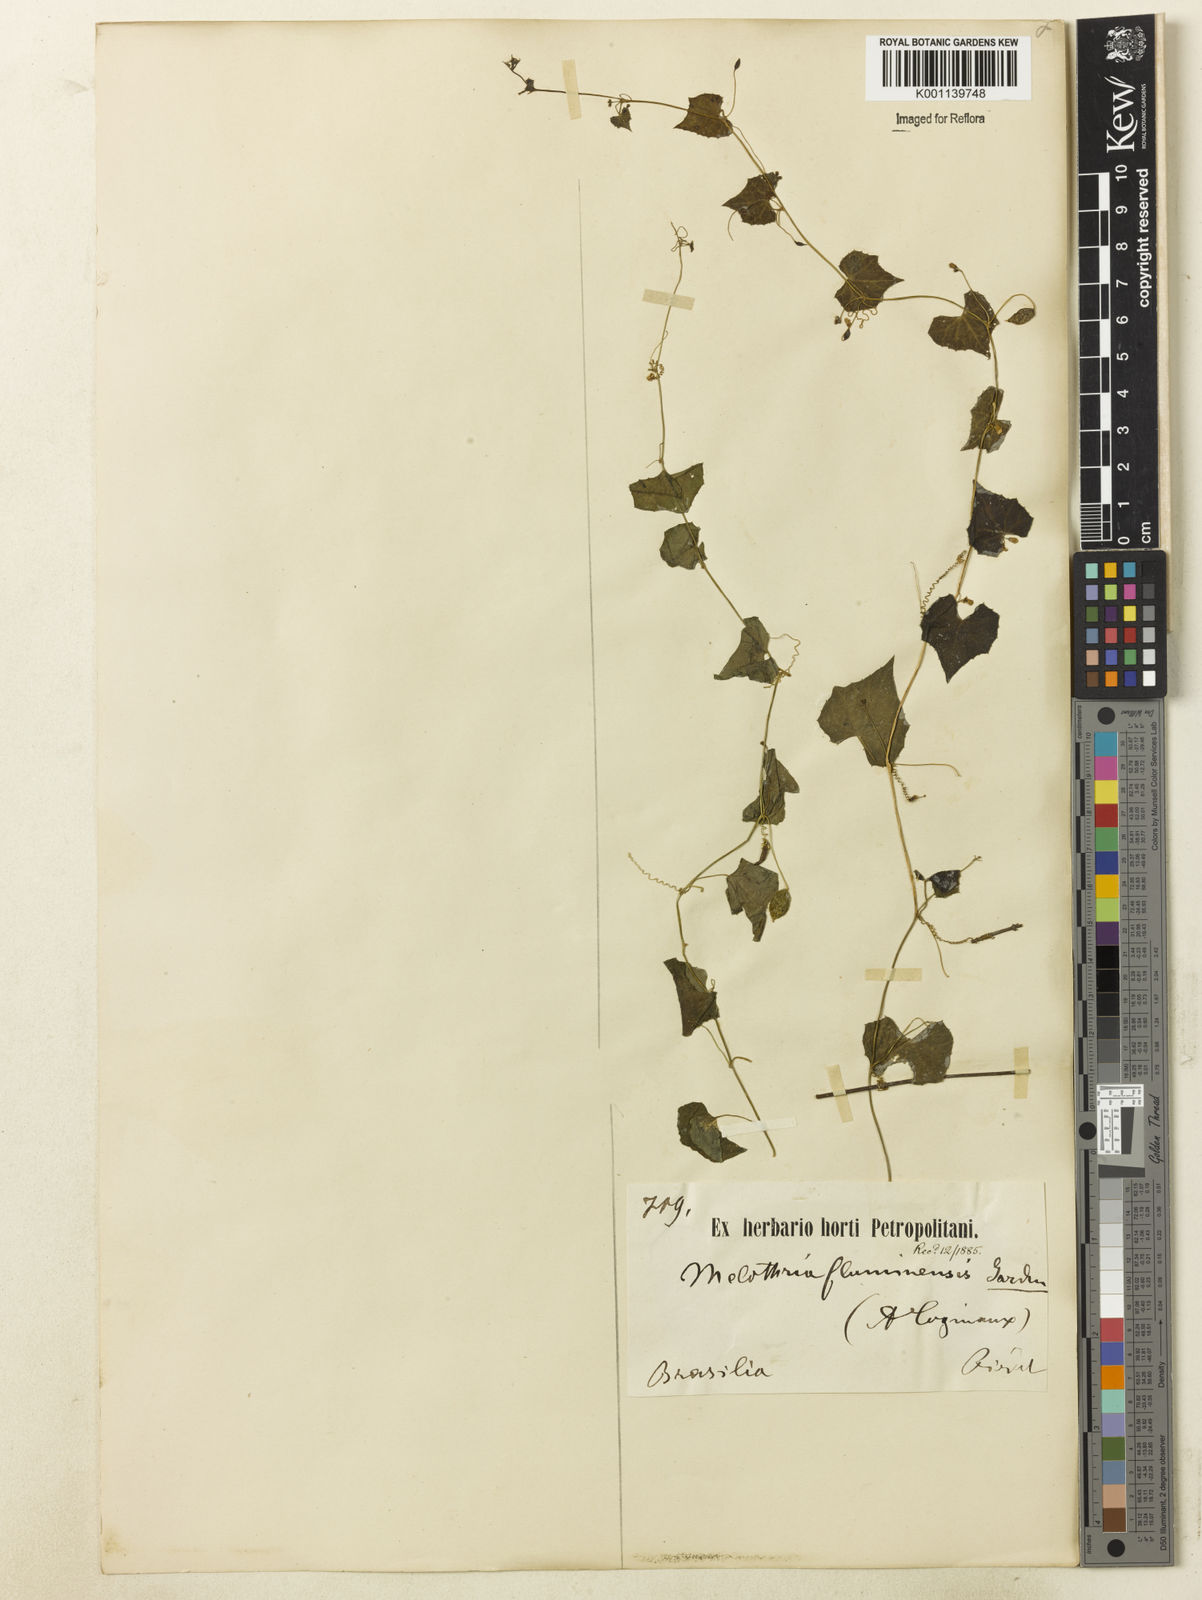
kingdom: Plantae
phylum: Tracheophyta
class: Magnoliopsida
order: Cucurbitales
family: Cucurbitaceae
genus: Melothria
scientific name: Melothria pendula
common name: Creeping-cucumber
